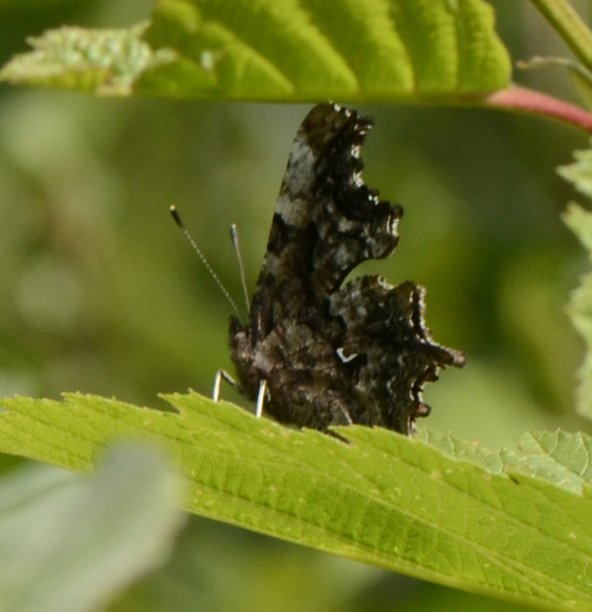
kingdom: Animalia
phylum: Arthropoda
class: Insecta
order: Lepidoptera
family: Nymphalidae
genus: Polygonia
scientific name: Polygonia gracilis
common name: Hoary Comma
